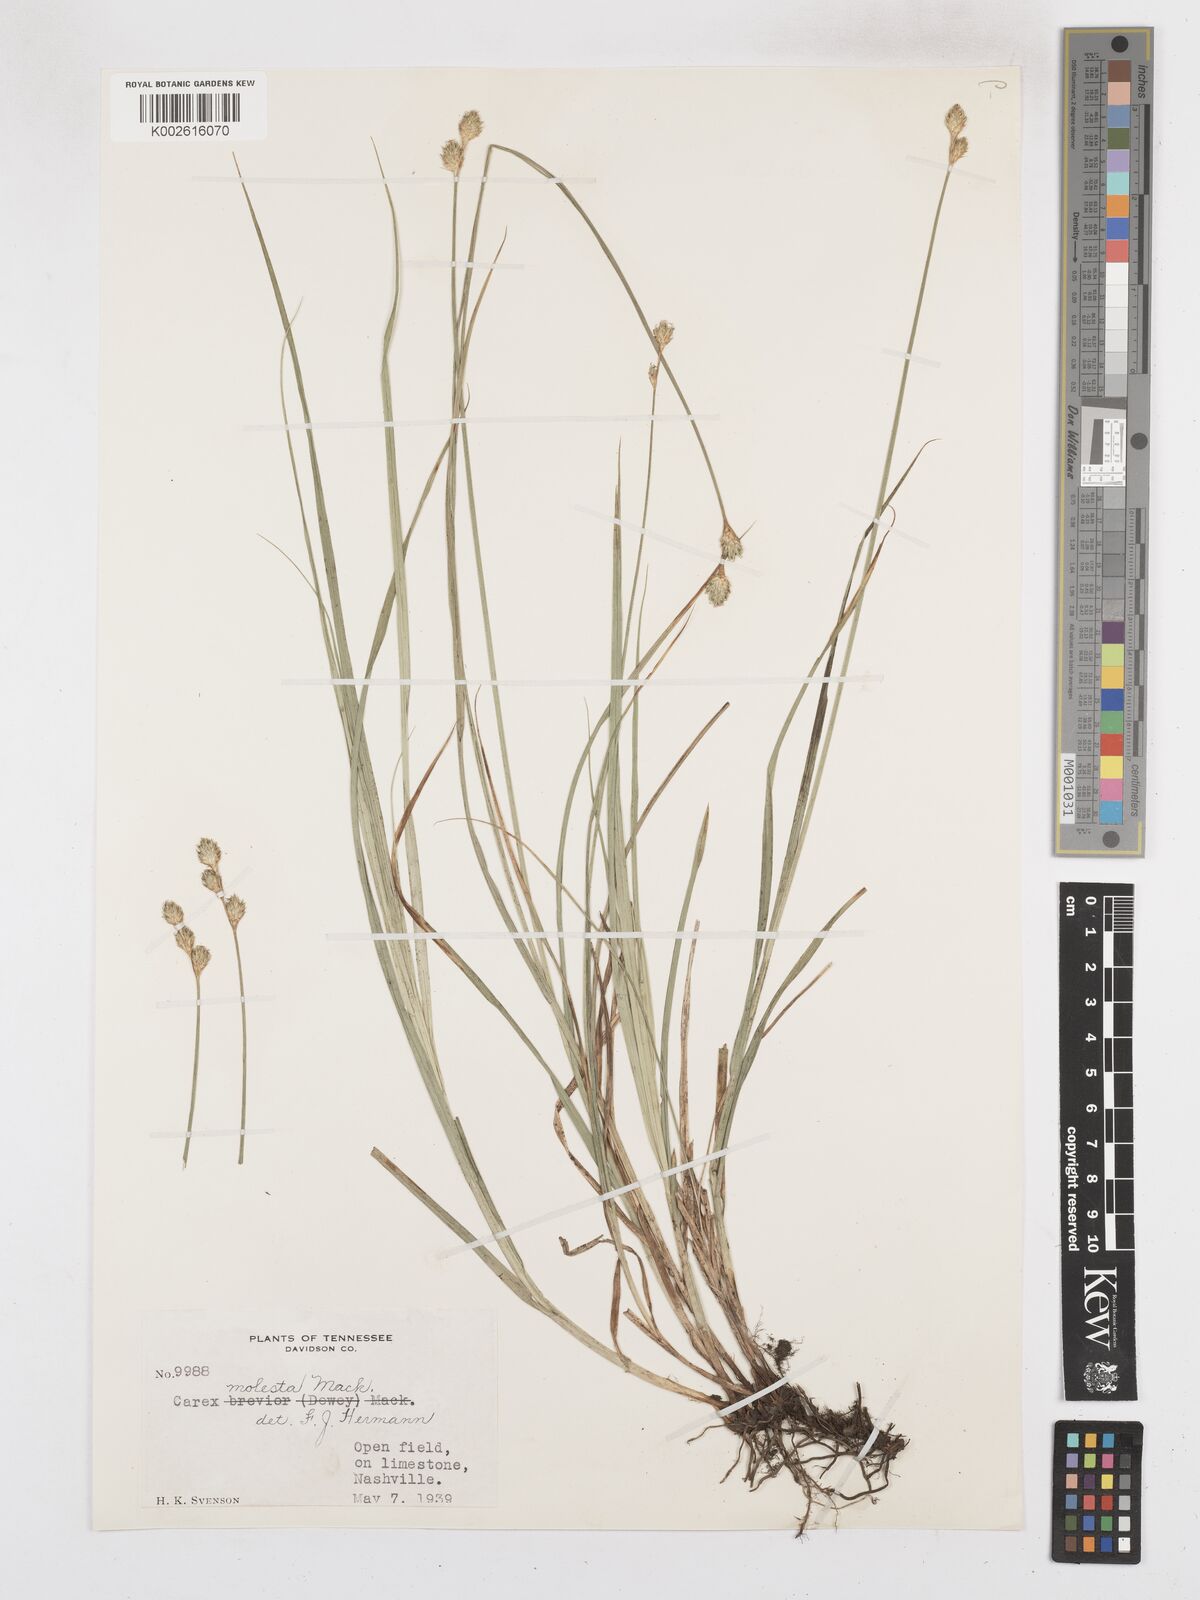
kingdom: Plantae
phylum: Tracheophyta
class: Liliopsida
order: Poales
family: Cyperaceae
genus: Carex
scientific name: Carex molesta
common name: Troublesome sedge
